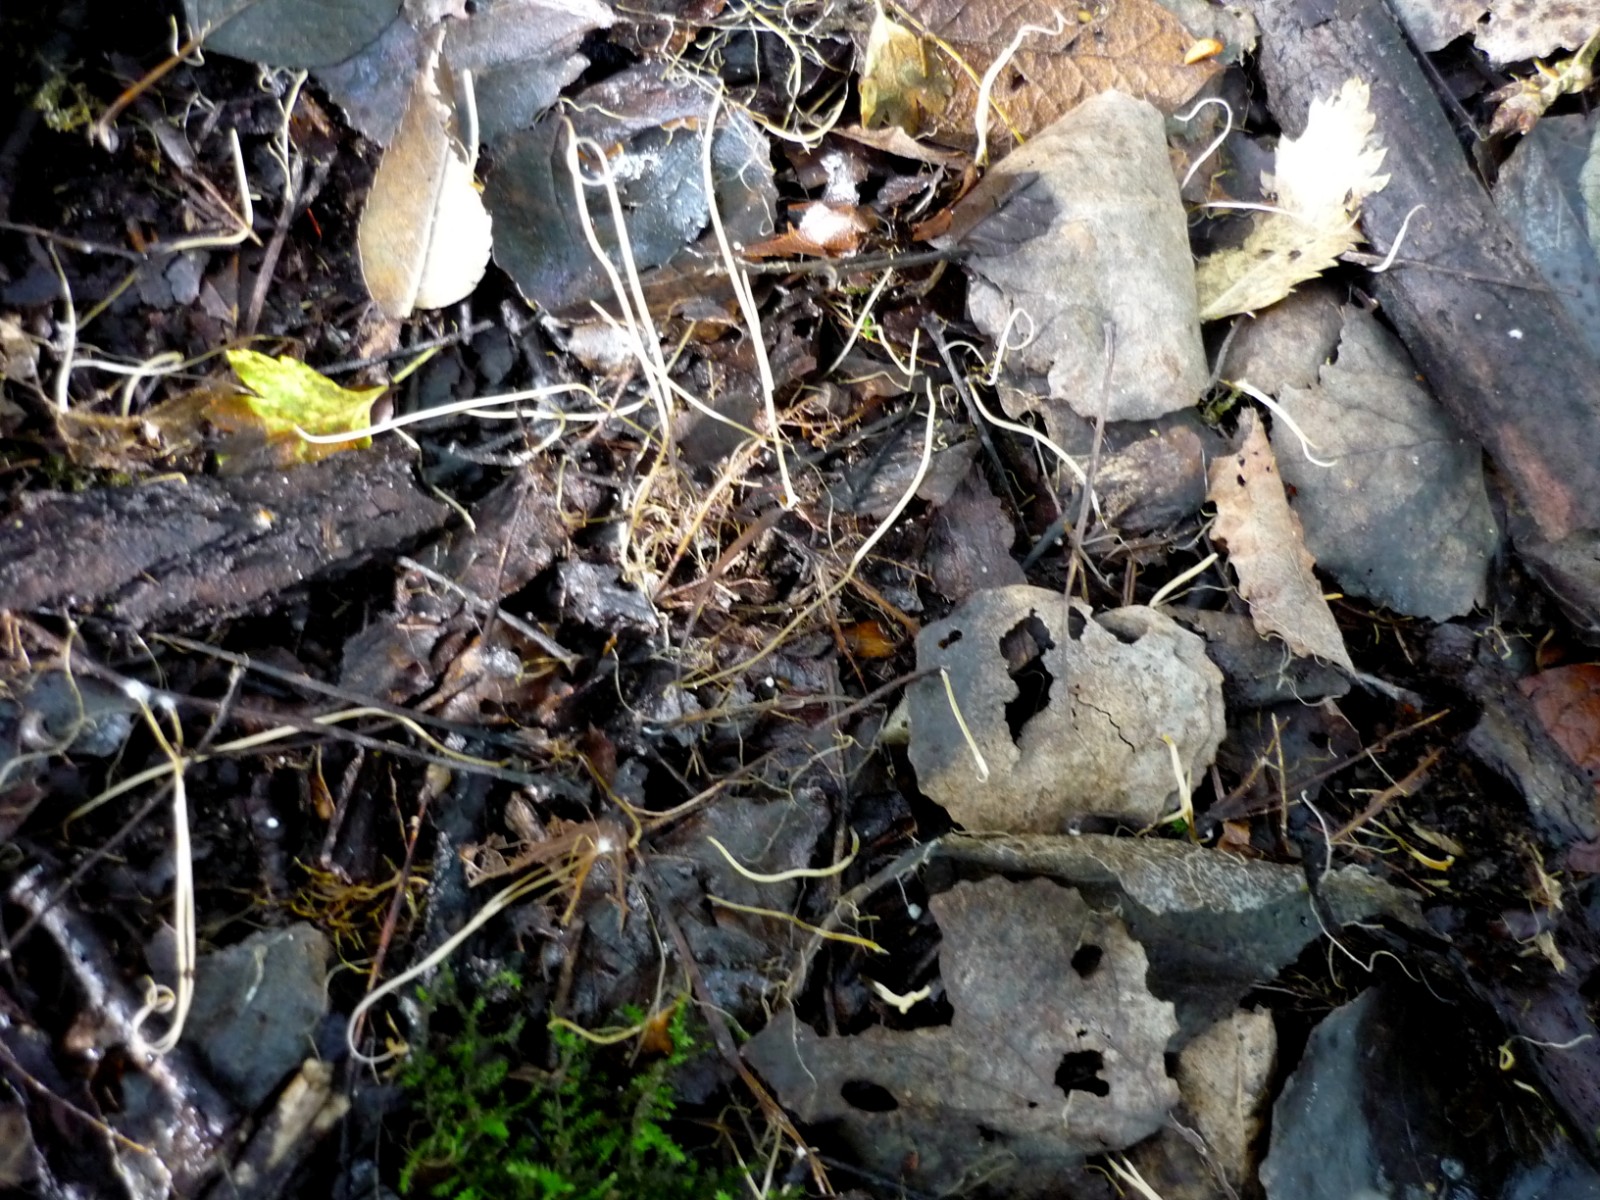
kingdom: Fungi
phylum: Basidiomycota
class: Agaricomycetes
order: Agaricales
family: Typhulaceae
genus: Typhula
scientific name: Typhula juncea
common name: trådagtig rørkølle
